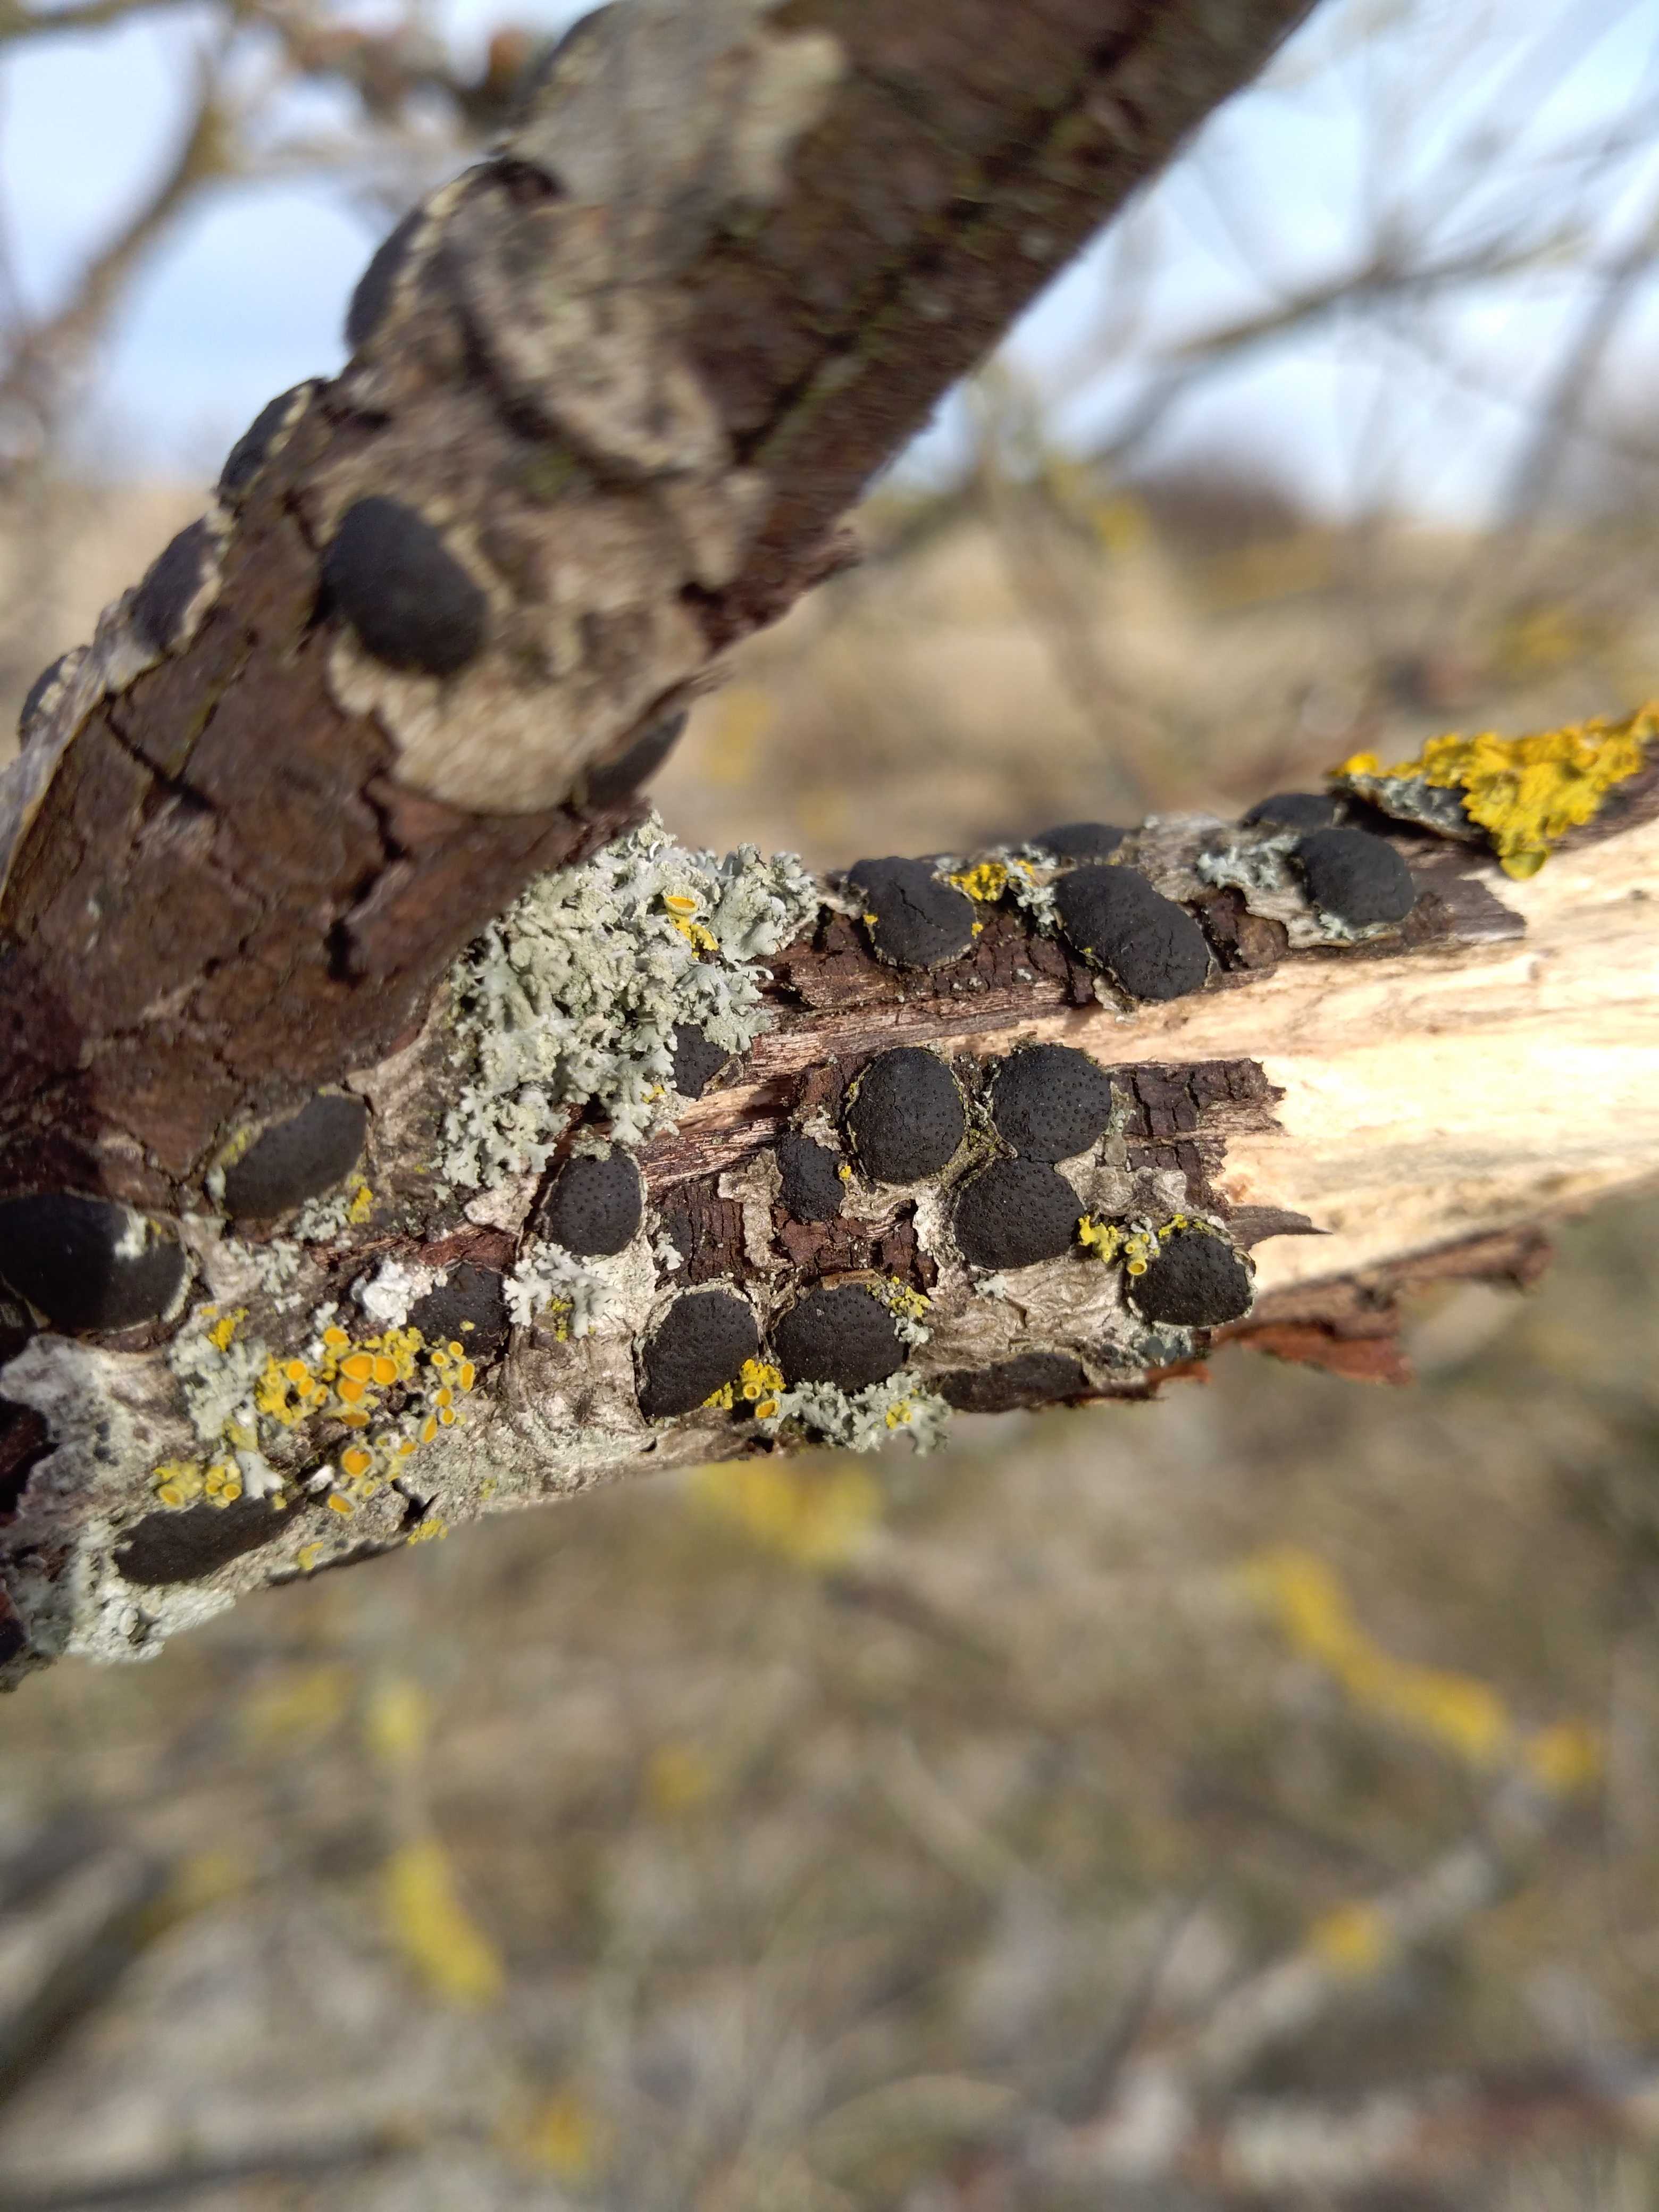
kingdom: Fungi
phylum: Ascomycota
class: Sordariomycetes
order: Xylariales
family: Diatrypaceae
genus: Diatrype
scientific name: Diatrype bullata
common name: pile-kulskorpe
